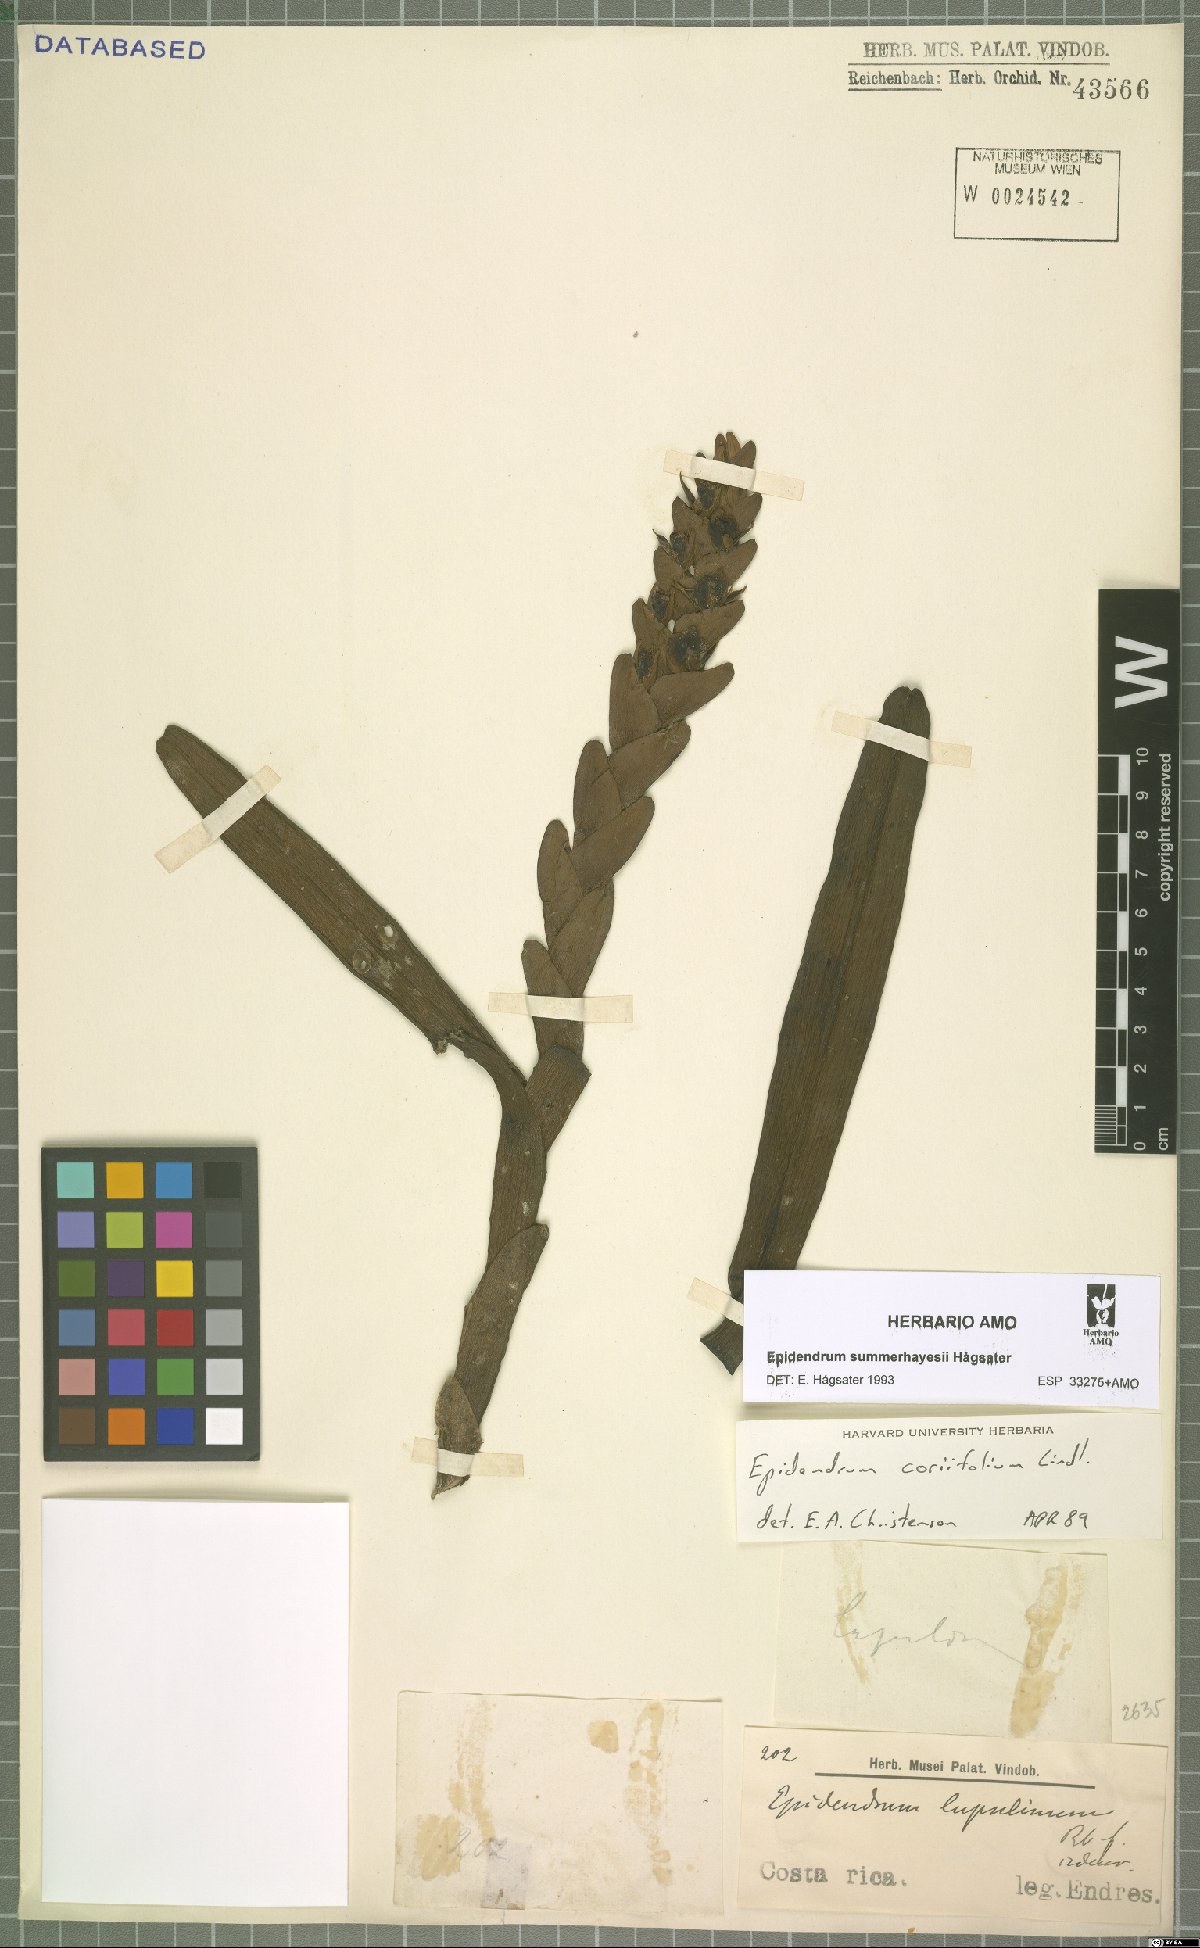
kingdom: Plantae
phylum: Tracheophyta
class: Liliopsida
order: Asparagales
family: Orchidaceae
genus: Epidendrum
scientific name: Epidendrum summerhayesii
